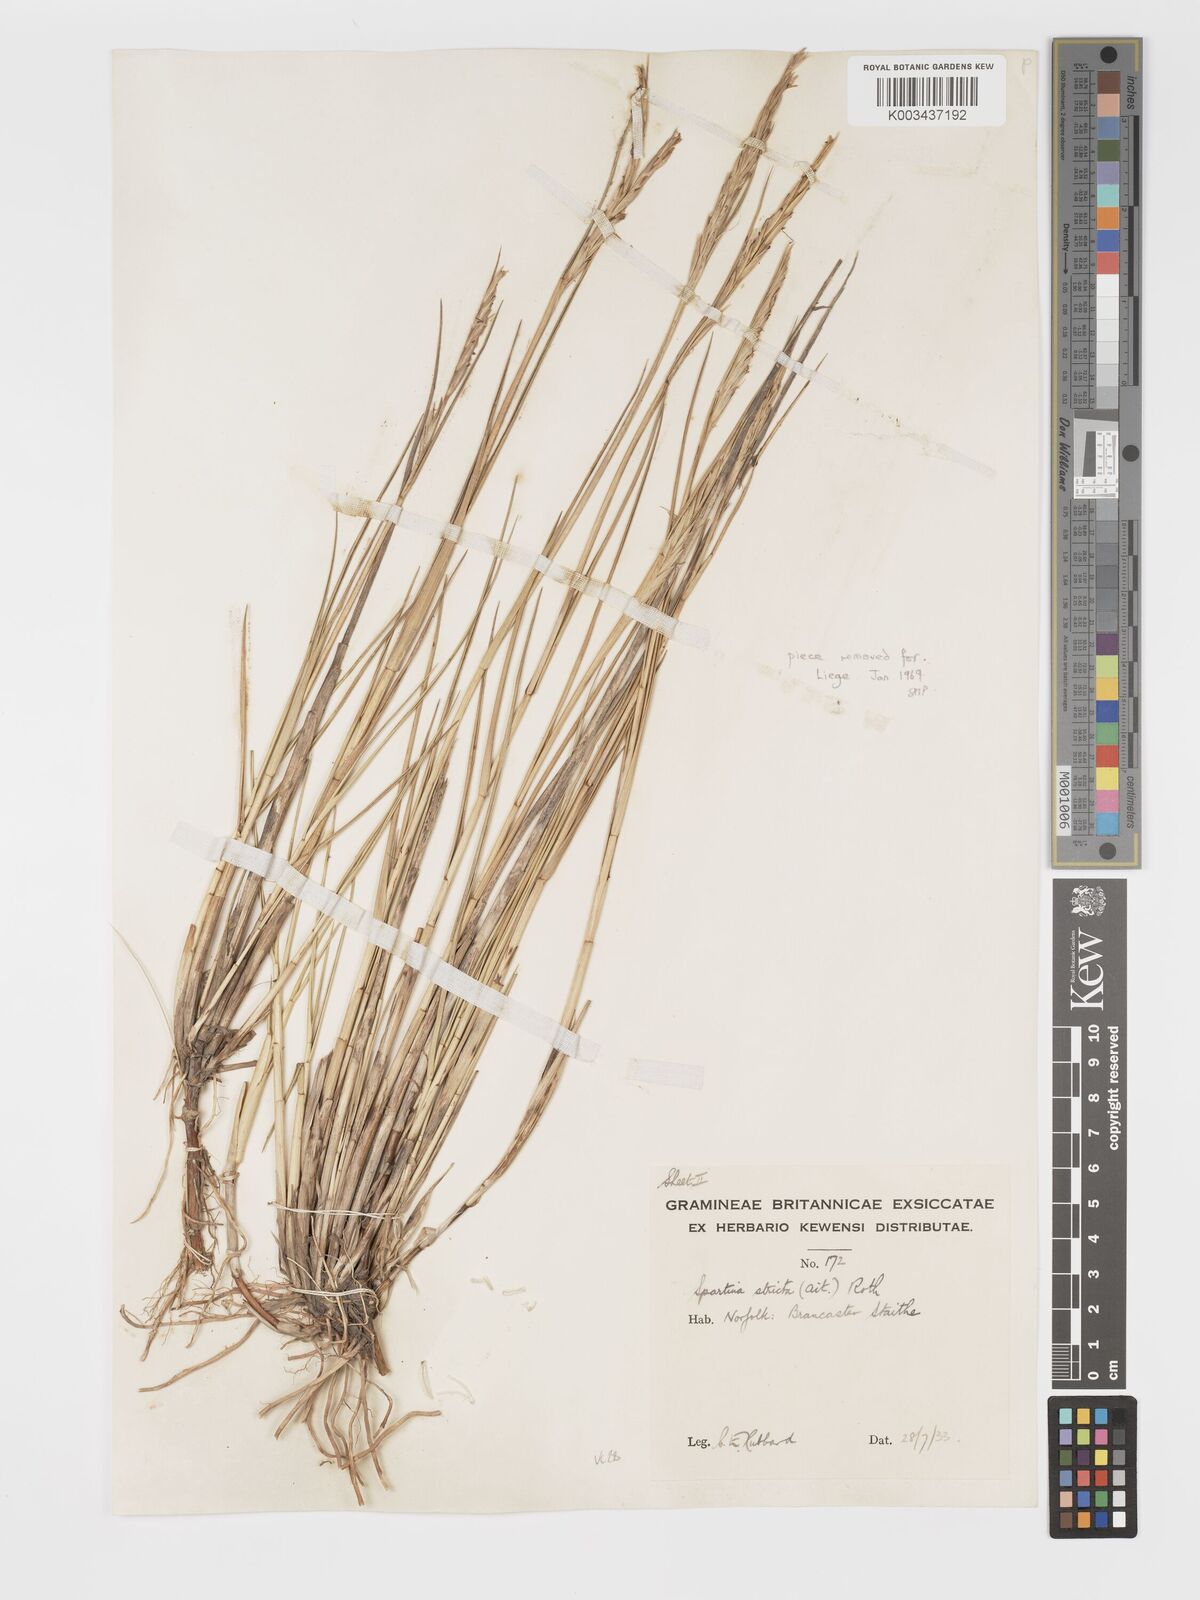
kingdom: Plantae
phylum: Tracheophyta
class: Liliopsida
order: Poales
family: Poaceae
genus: Sporobolus
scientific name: Sporobolus maritimus
